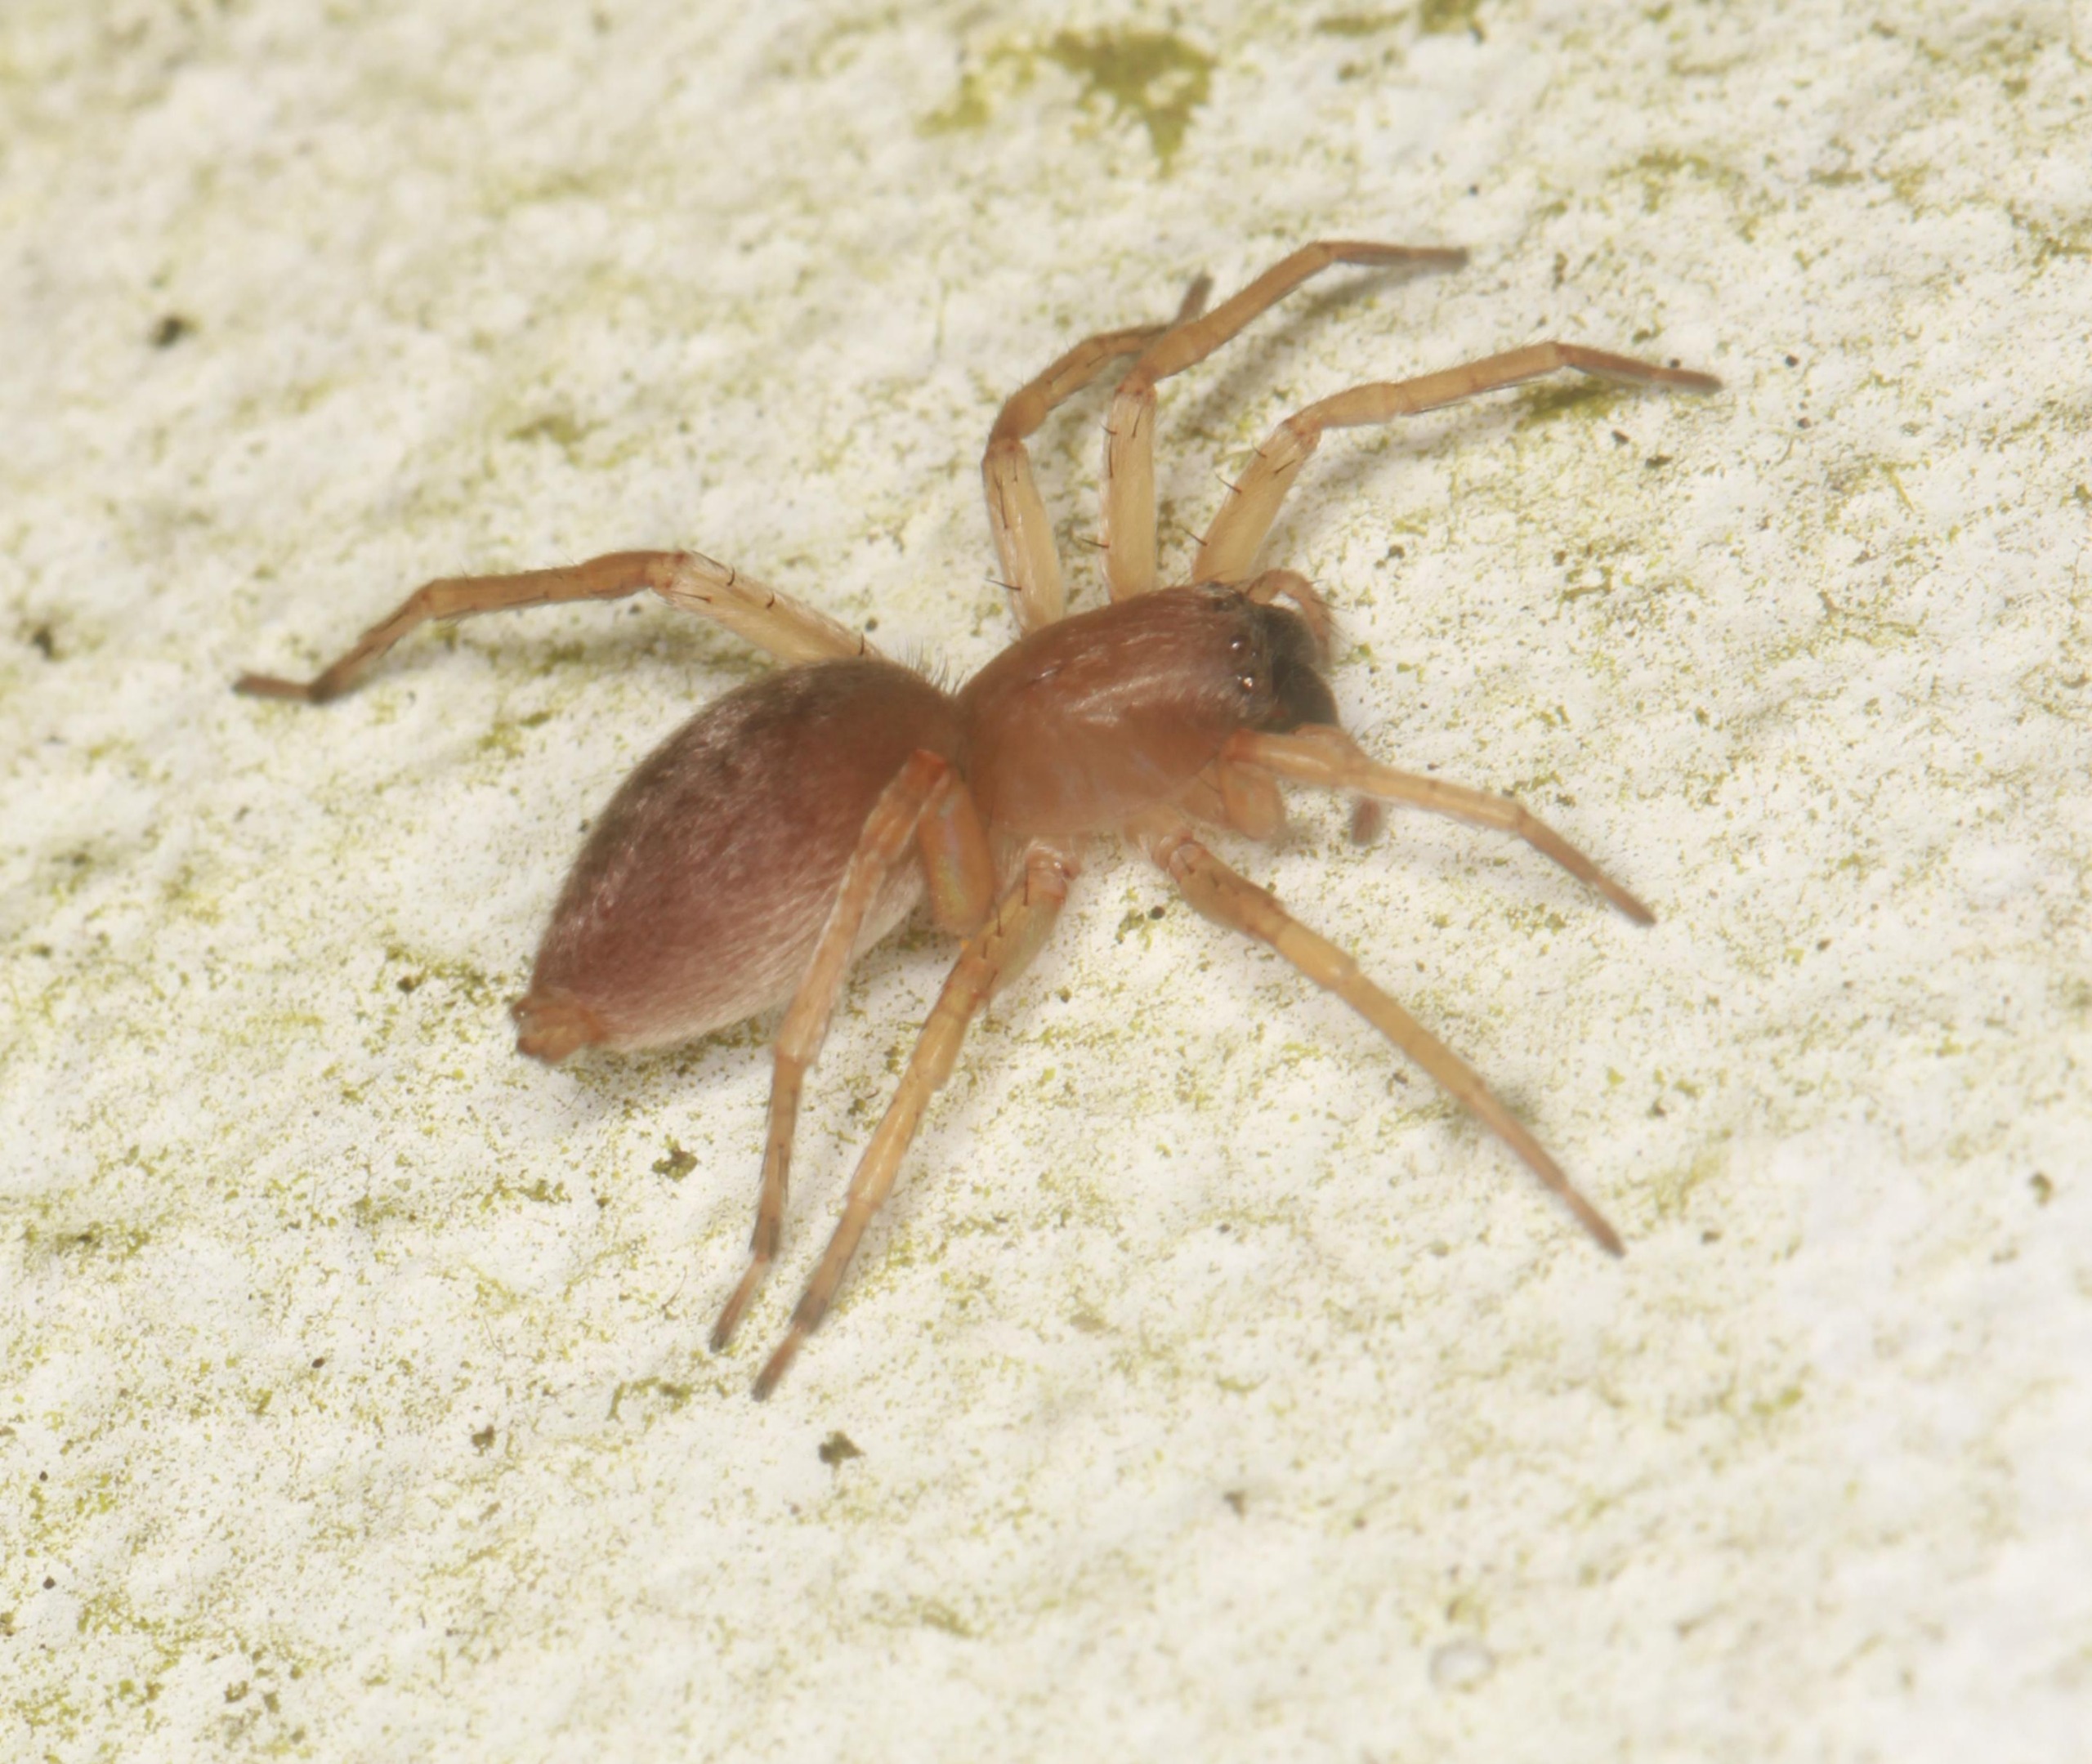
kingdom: Animalia
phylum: Arthropoda
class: Arachnida
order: Araneae
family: Clubionidae
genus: Clubiona
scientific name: Clubiona
